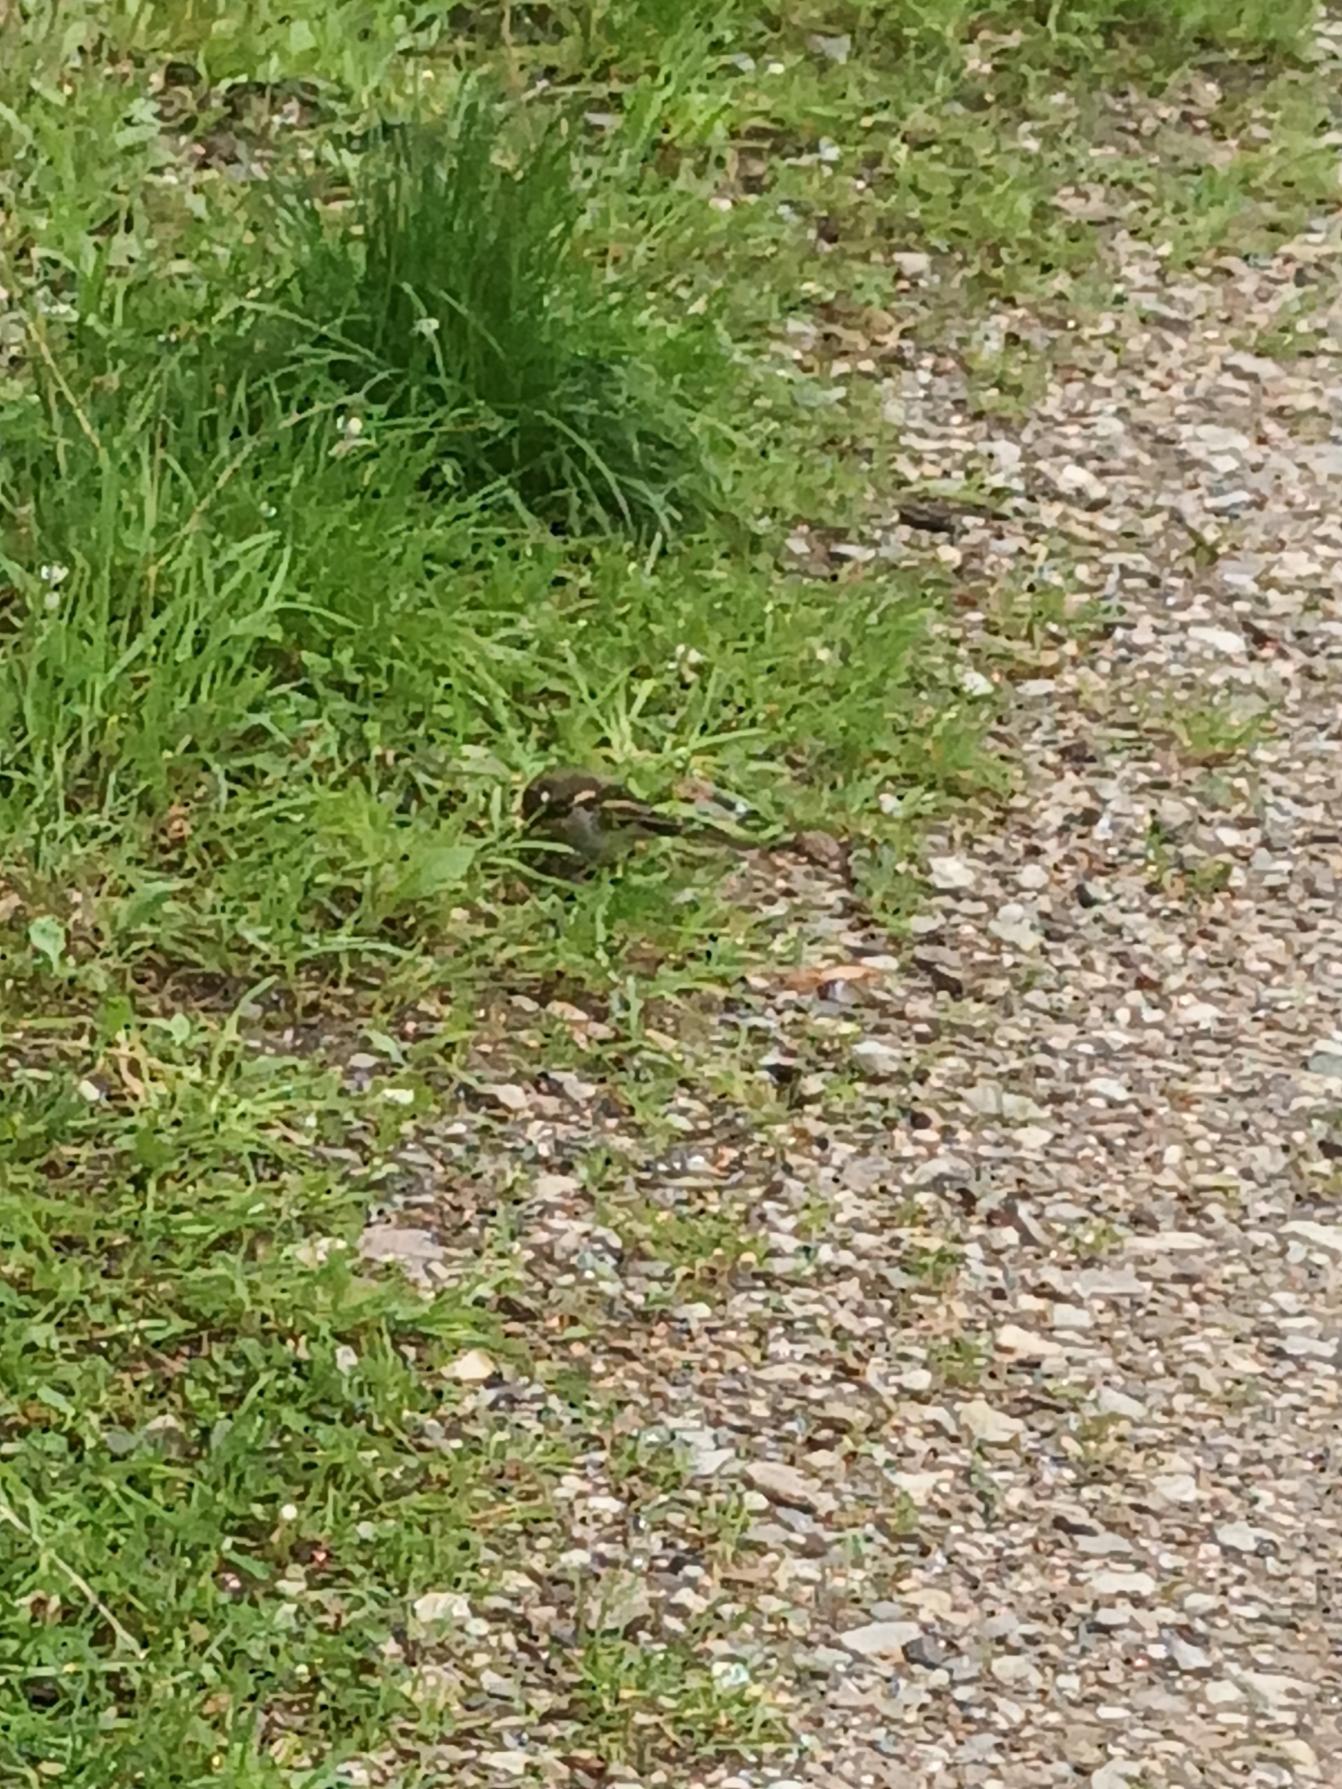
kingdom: Animalia
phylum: Chordata
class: Aves
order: Passeriformes
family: Fringillidae
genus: Fringilla
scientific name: Fringilla coelebs
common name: Bogfinke
